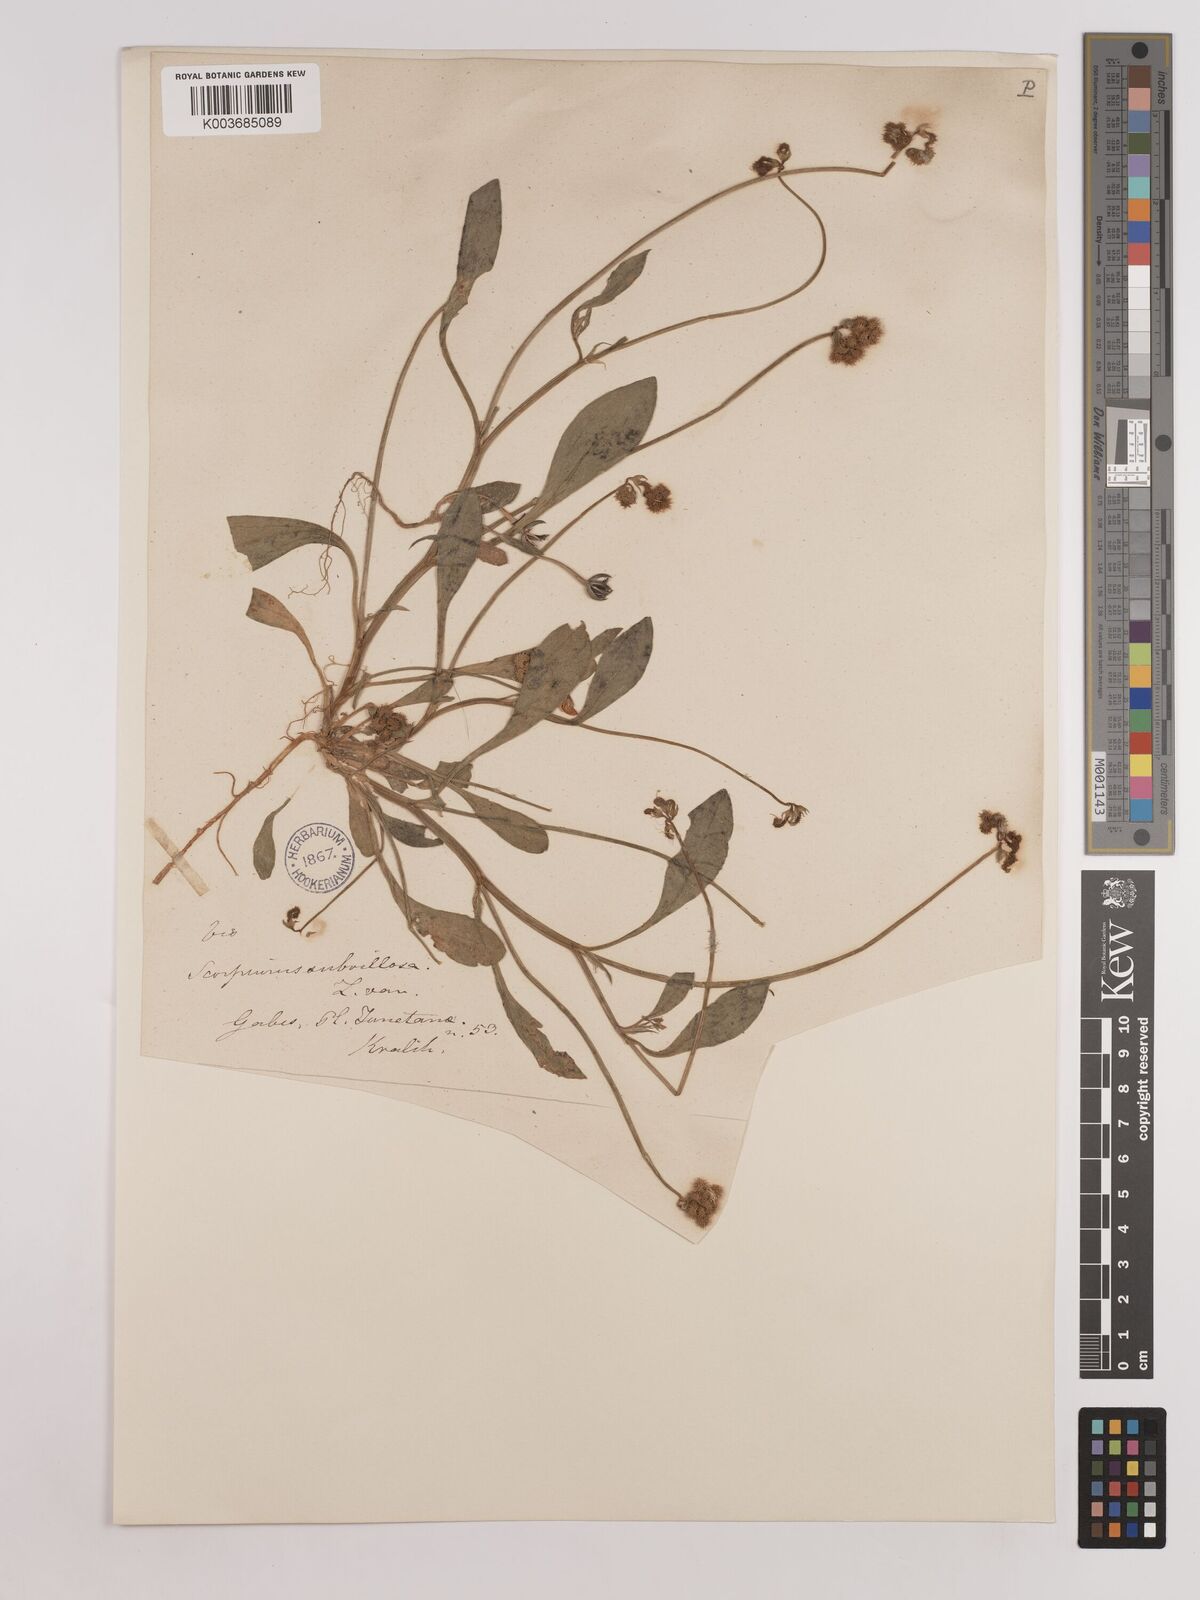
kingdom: Plantae
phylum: Tracheophyta
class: Magnoliopsida
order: Fabales
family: Fabaceae
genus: Scorpiurus
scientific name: Scorpiurus muricatus
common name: Caterpillar-plant
